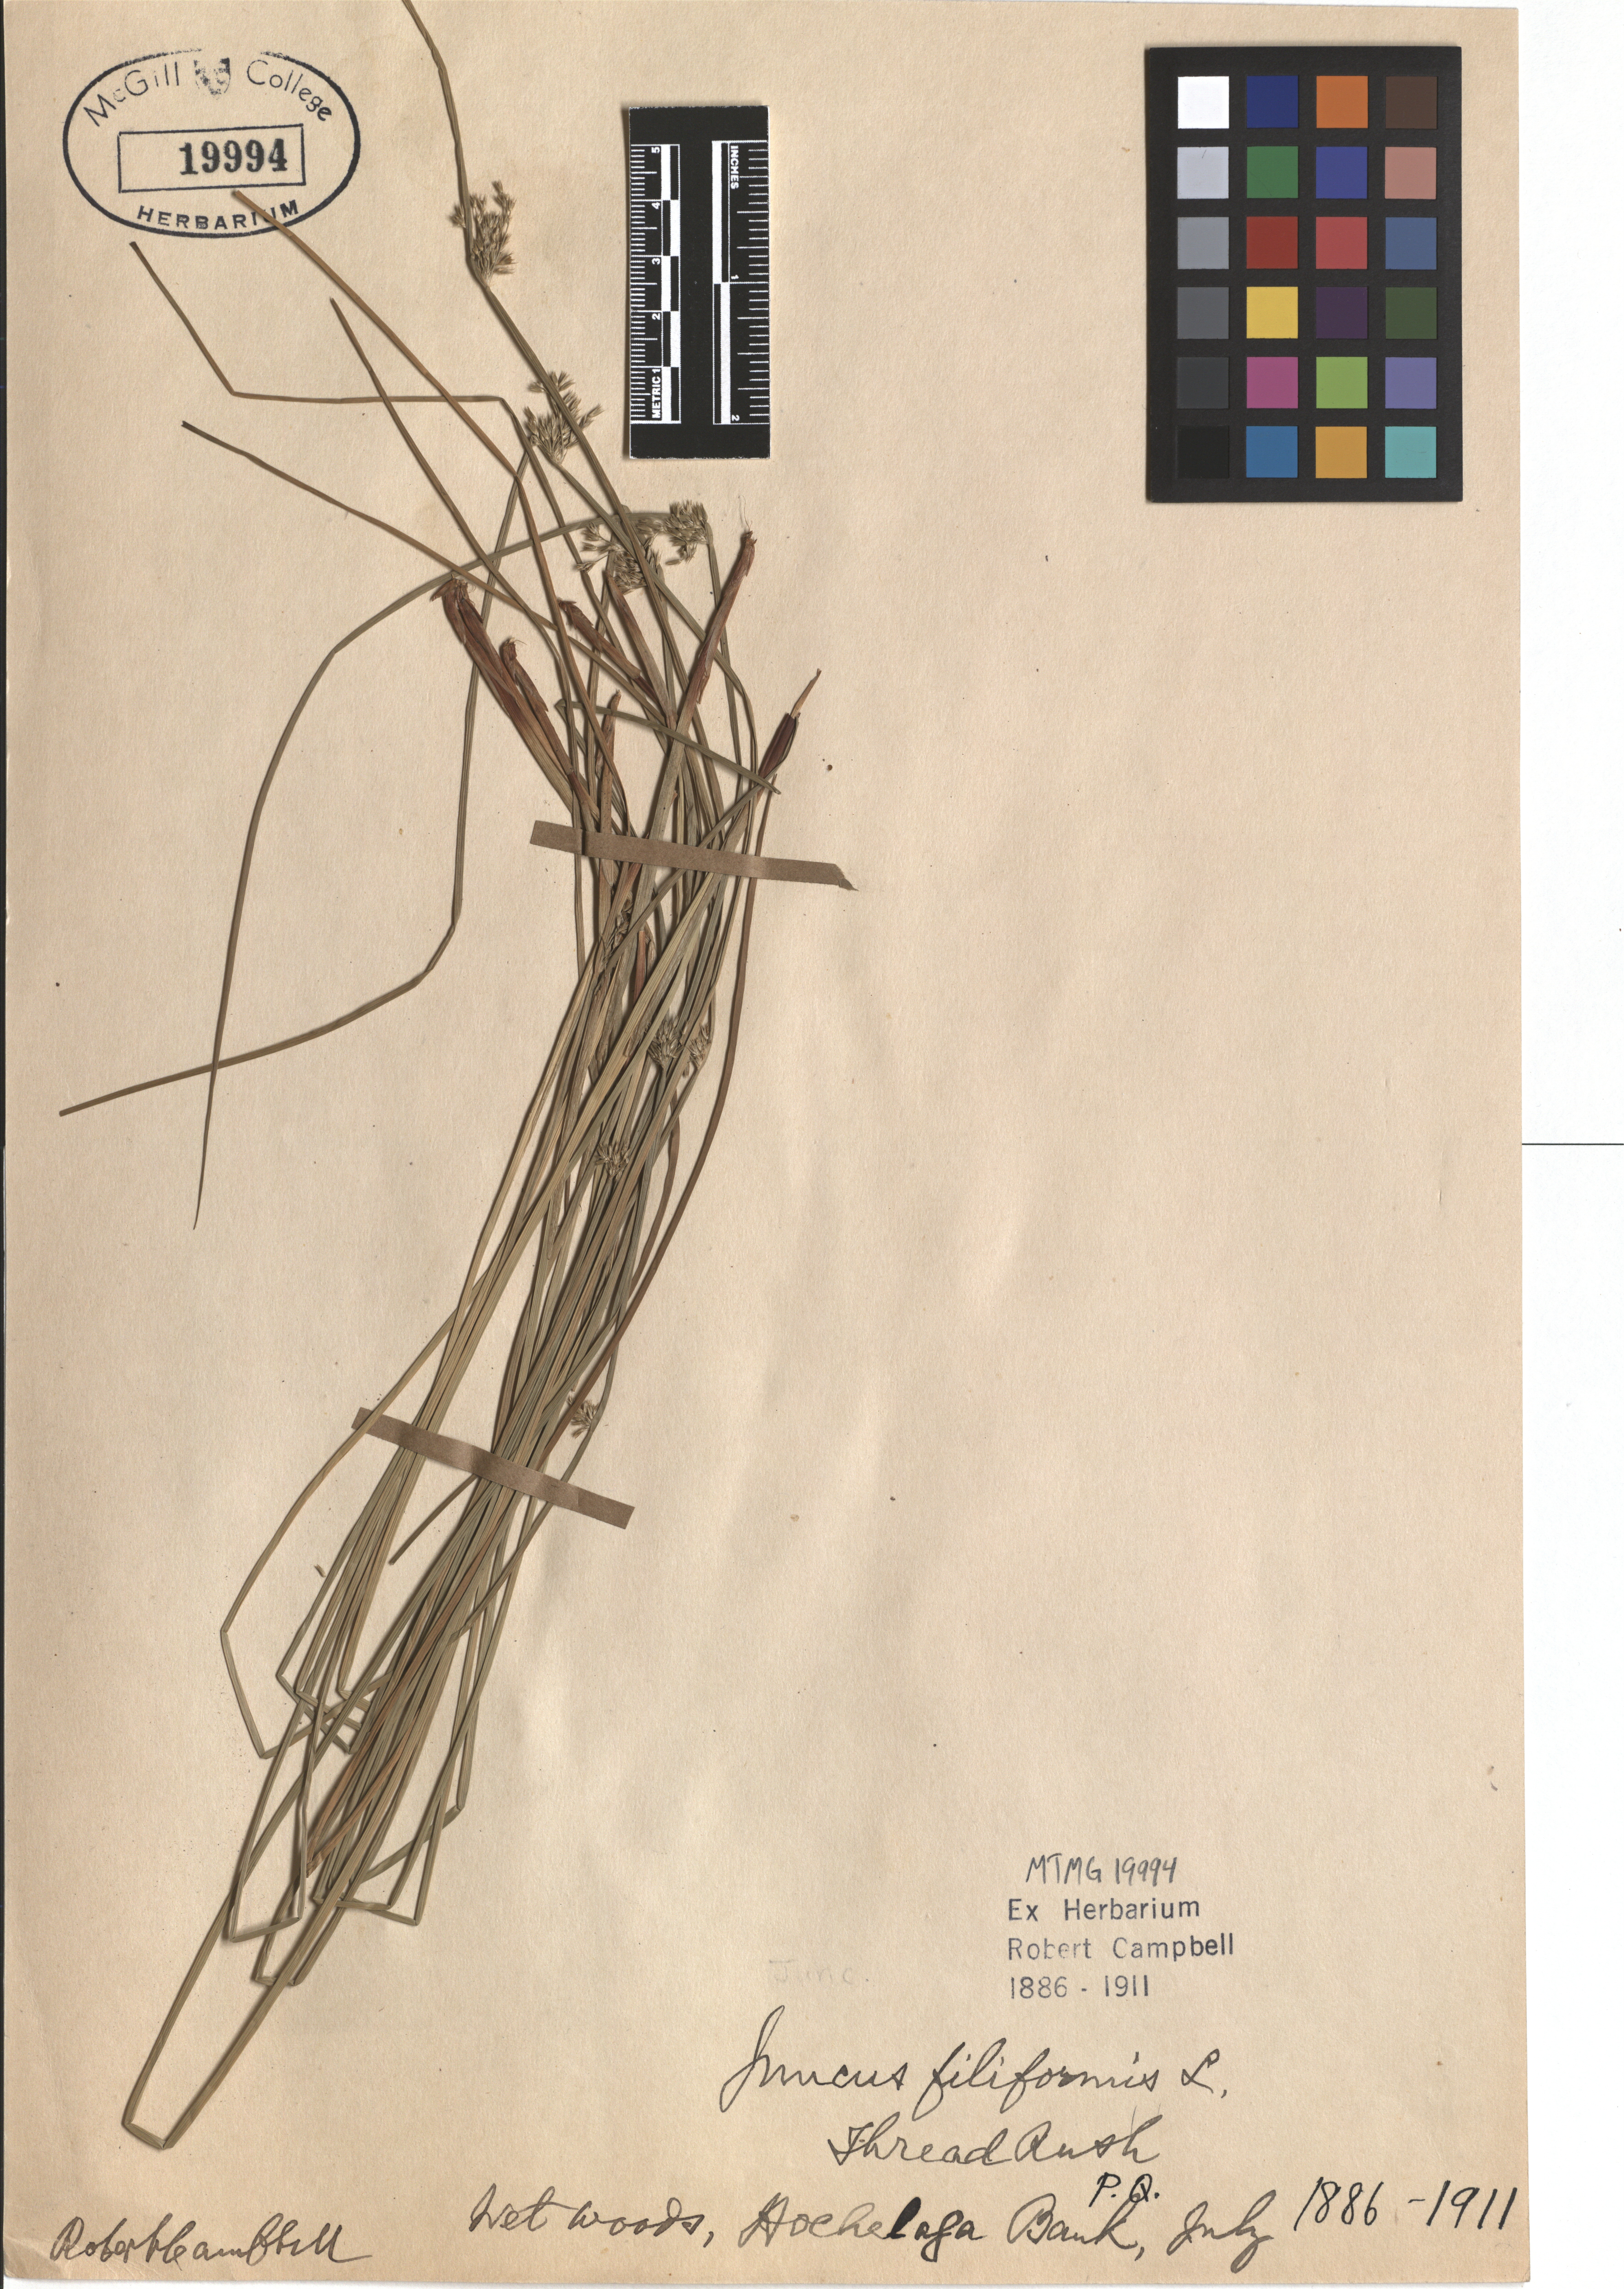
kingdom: Plantae
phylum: Tracheophyta
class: Liliopsida
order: Poales
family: Juncaceae
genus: Juncus
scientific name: Juncus filiformis
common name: Thread rush
